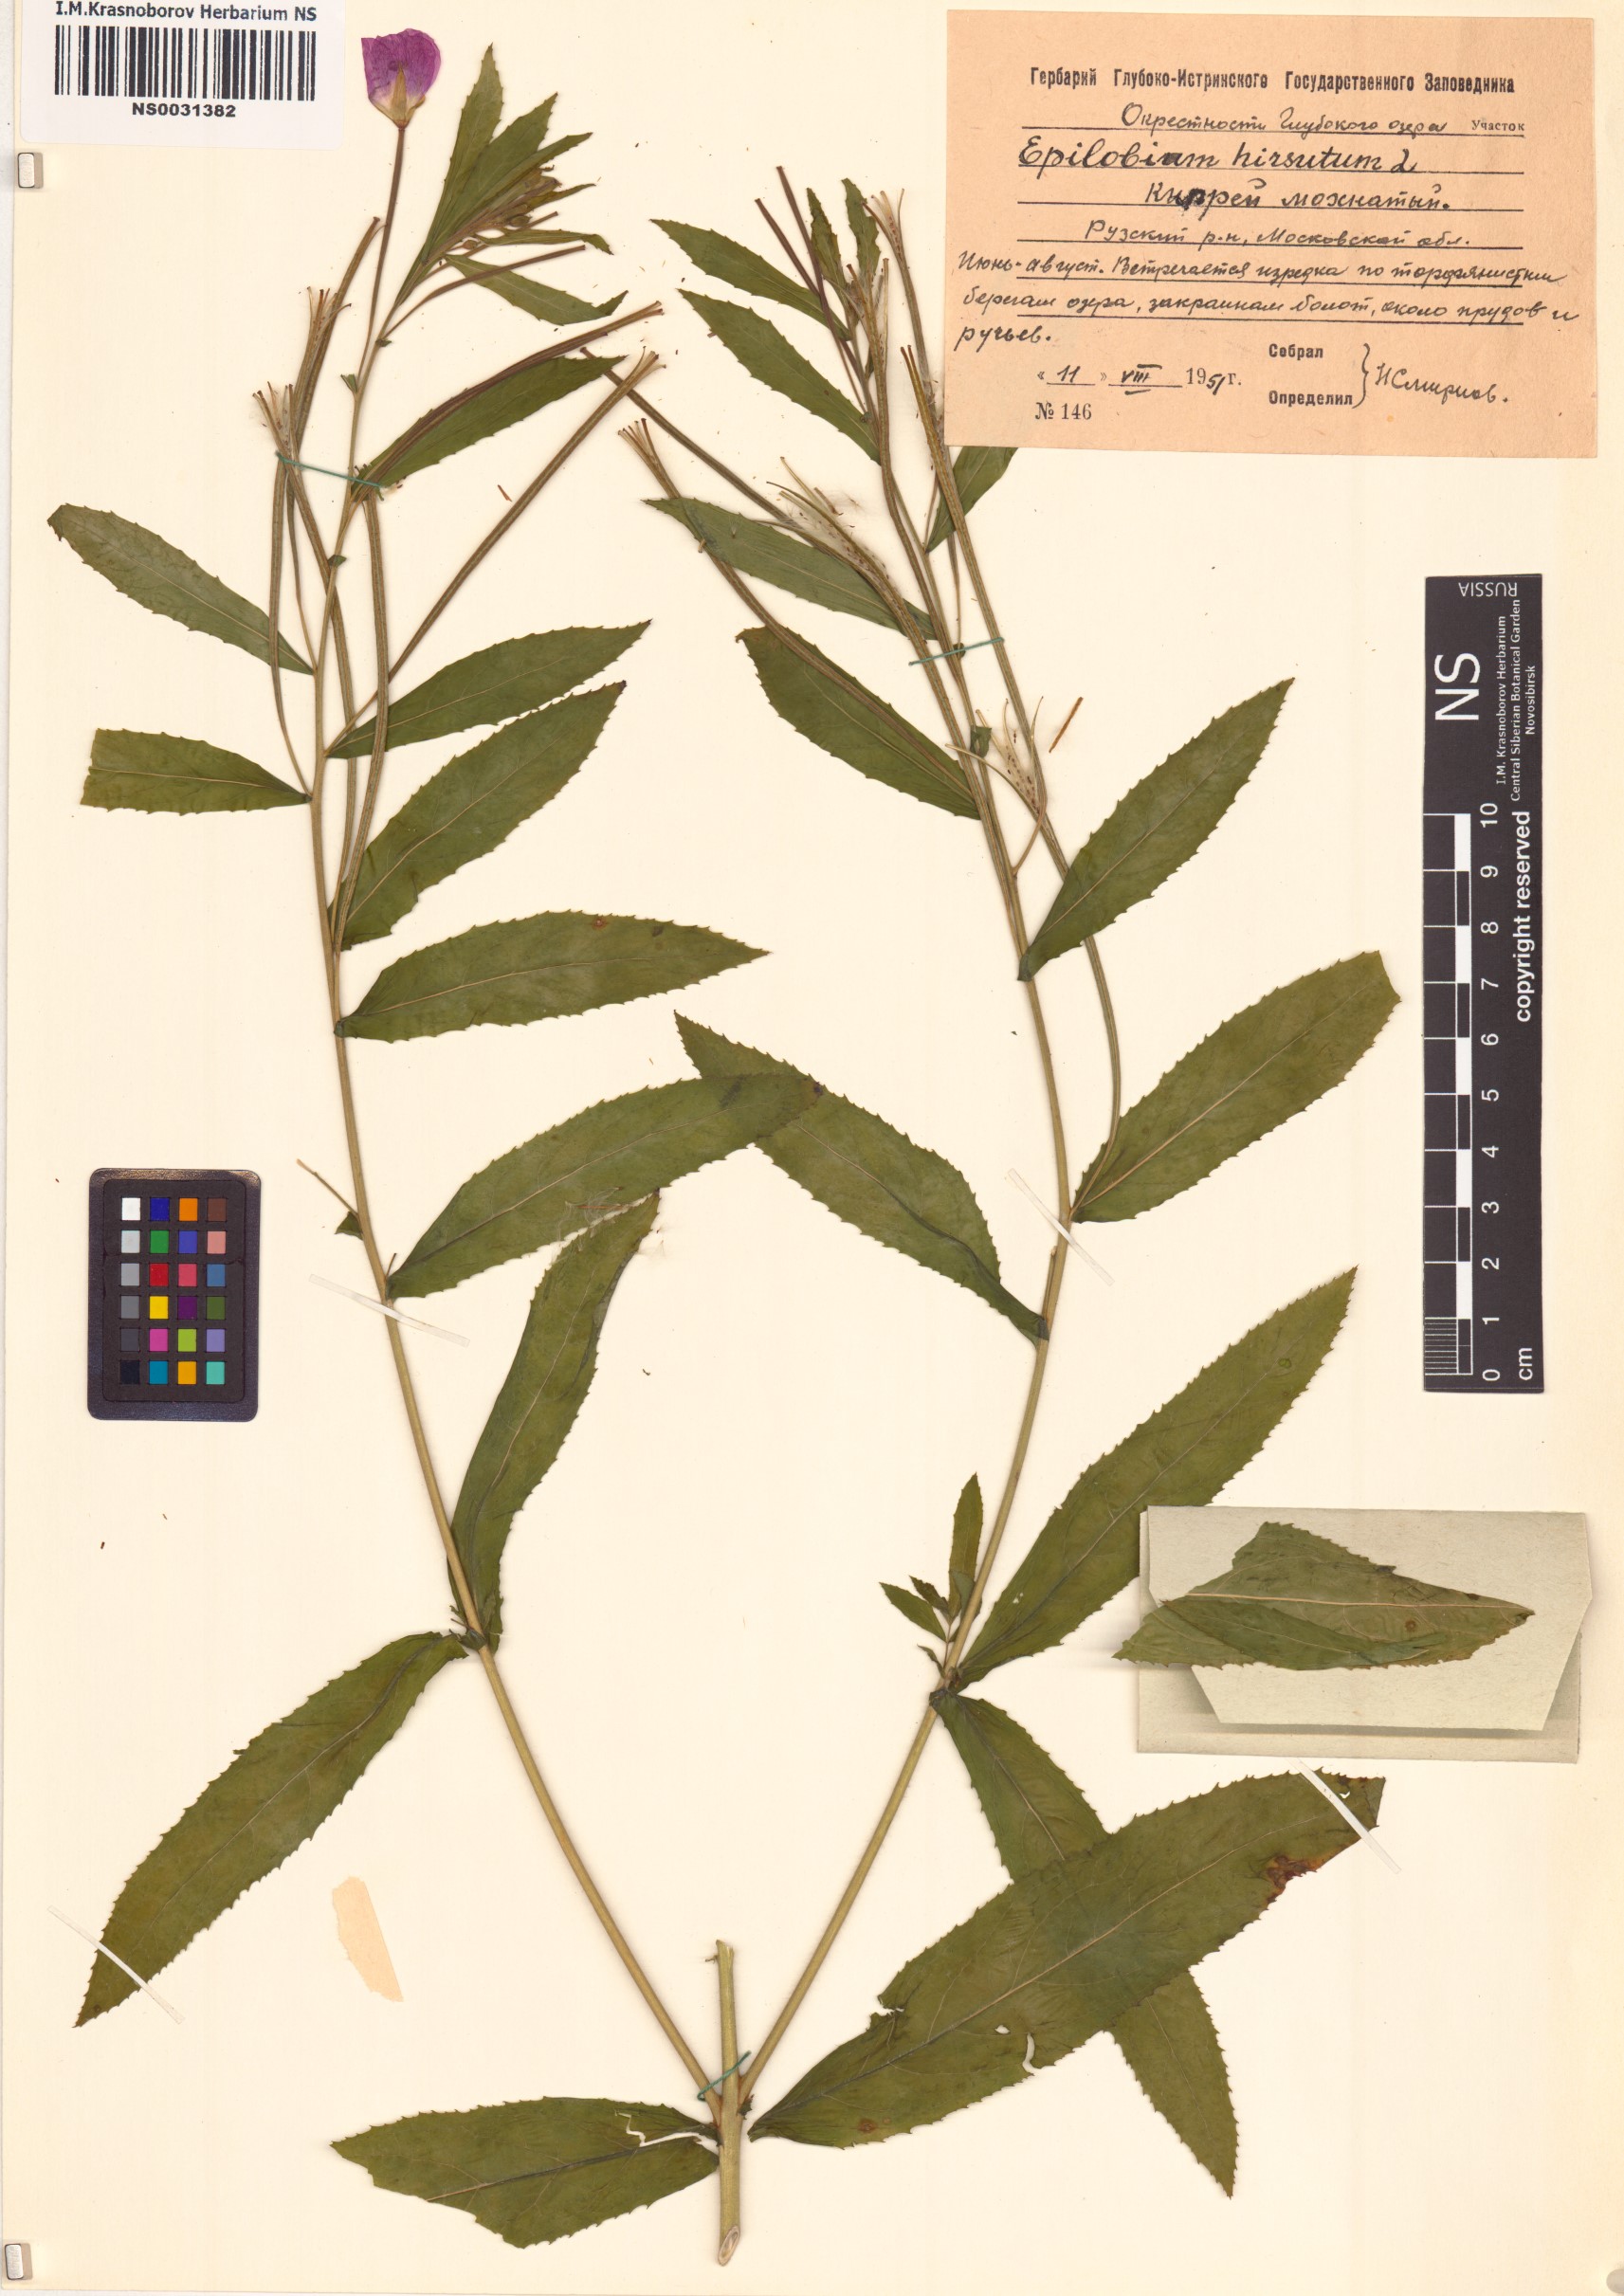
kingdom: Plantae
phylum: Tracheophyta
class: Magnoliopsida
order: Myrtales
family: Onagraceae
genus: Epilobium
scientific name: Epilobium hirsutum
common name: Great willowherb
